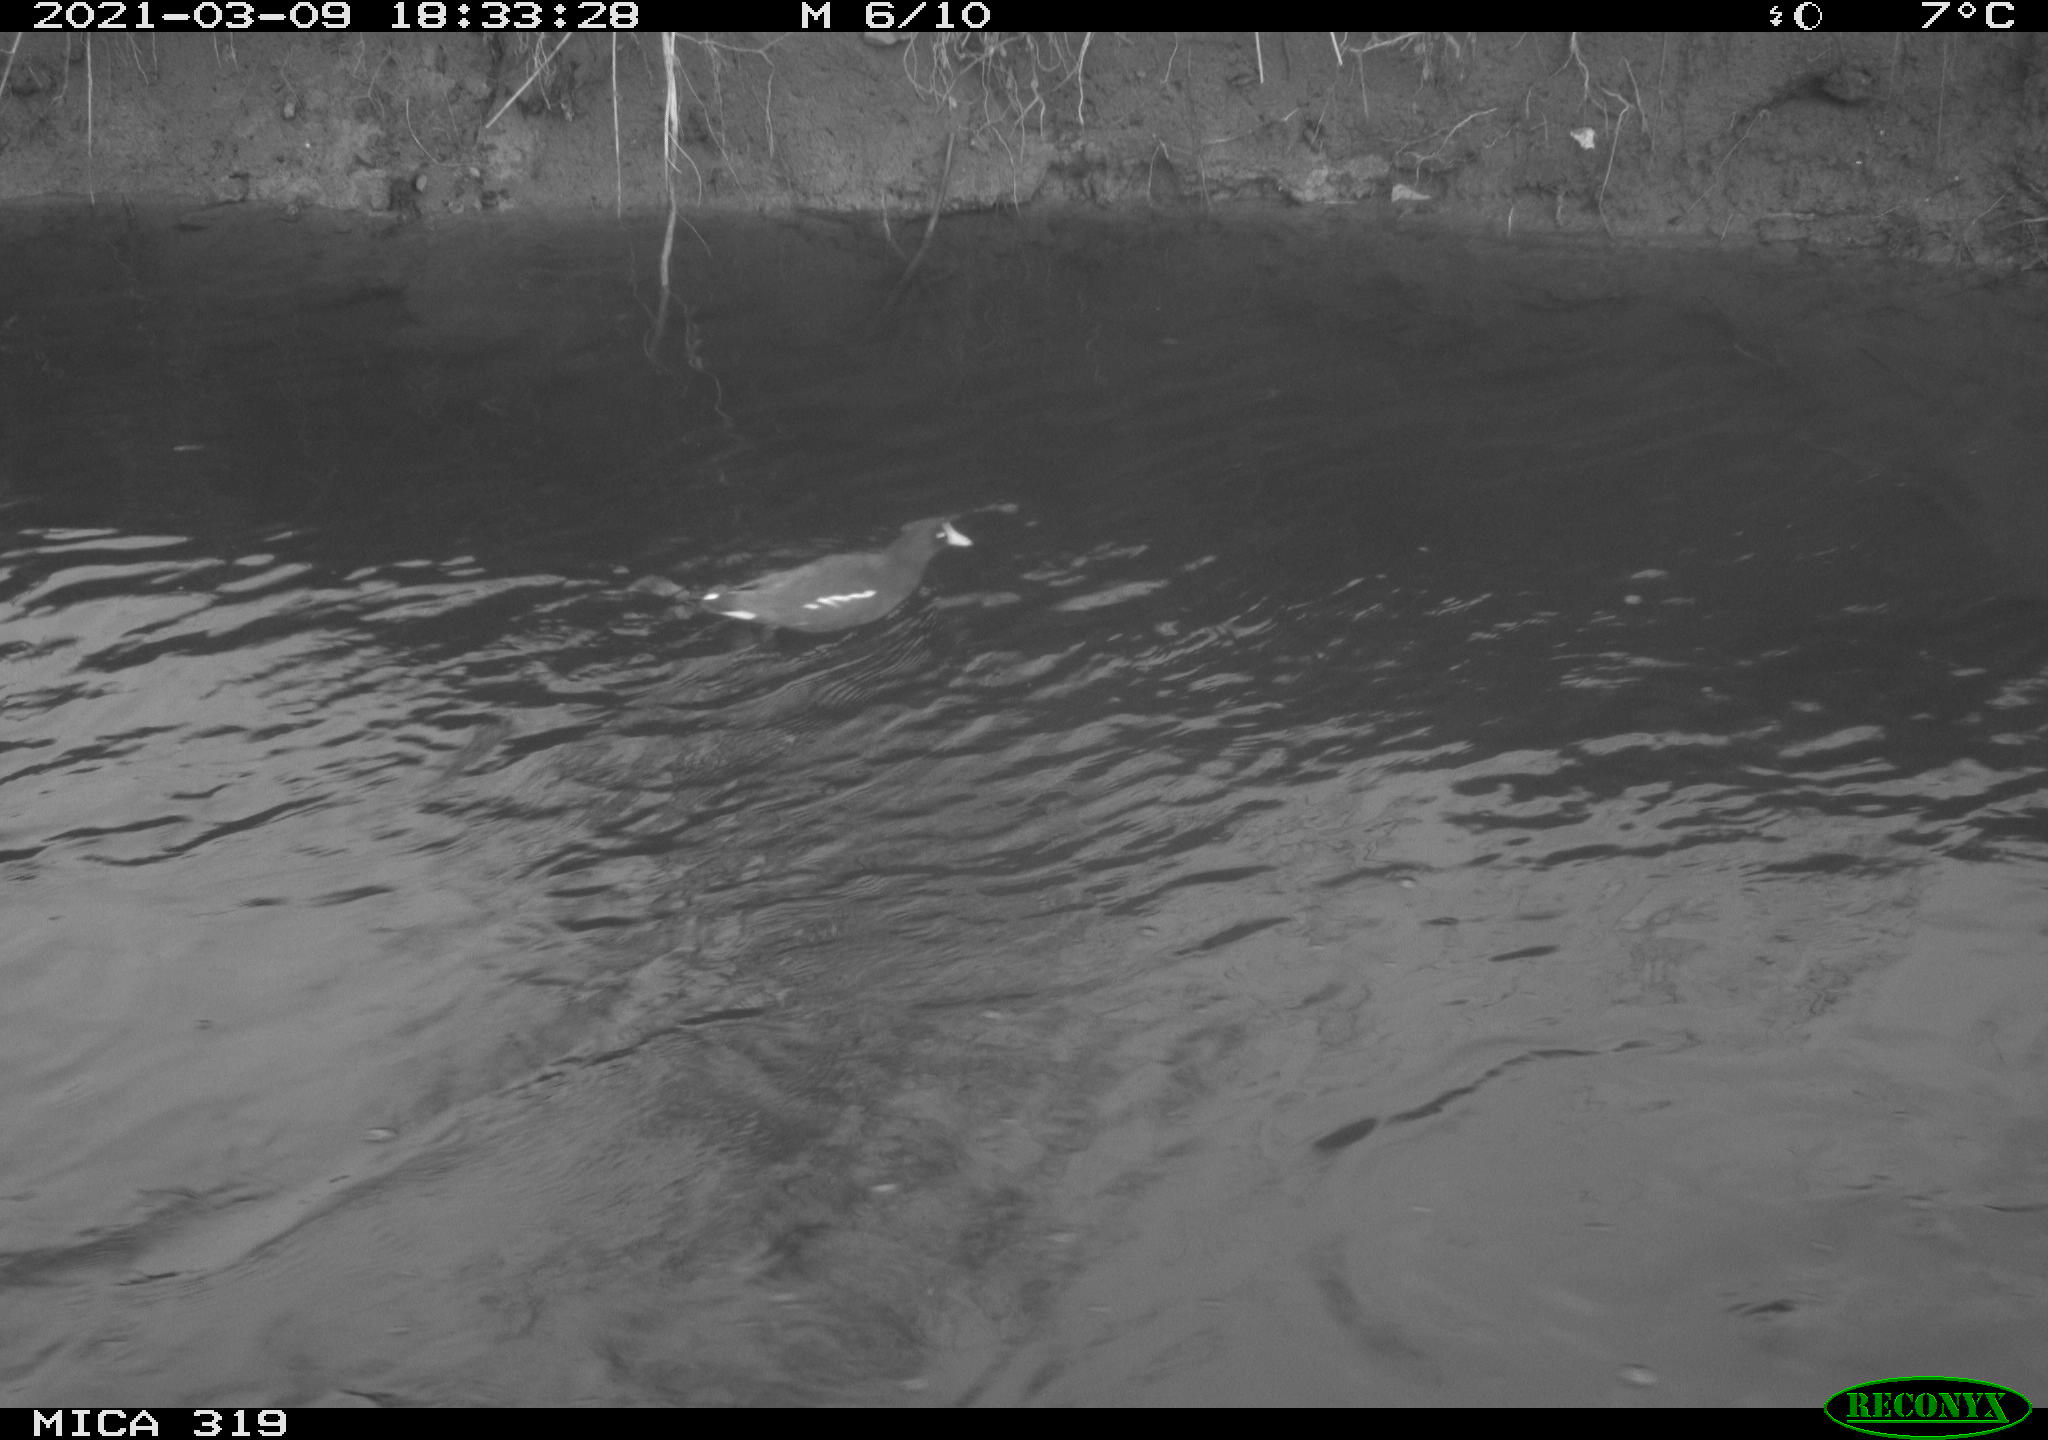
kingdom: Animalia
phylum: Chordata
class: Aves
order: Gruiformes
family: Rallidae
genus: Gallinula
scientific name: Gallinula chloropus
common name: Common moorhen
